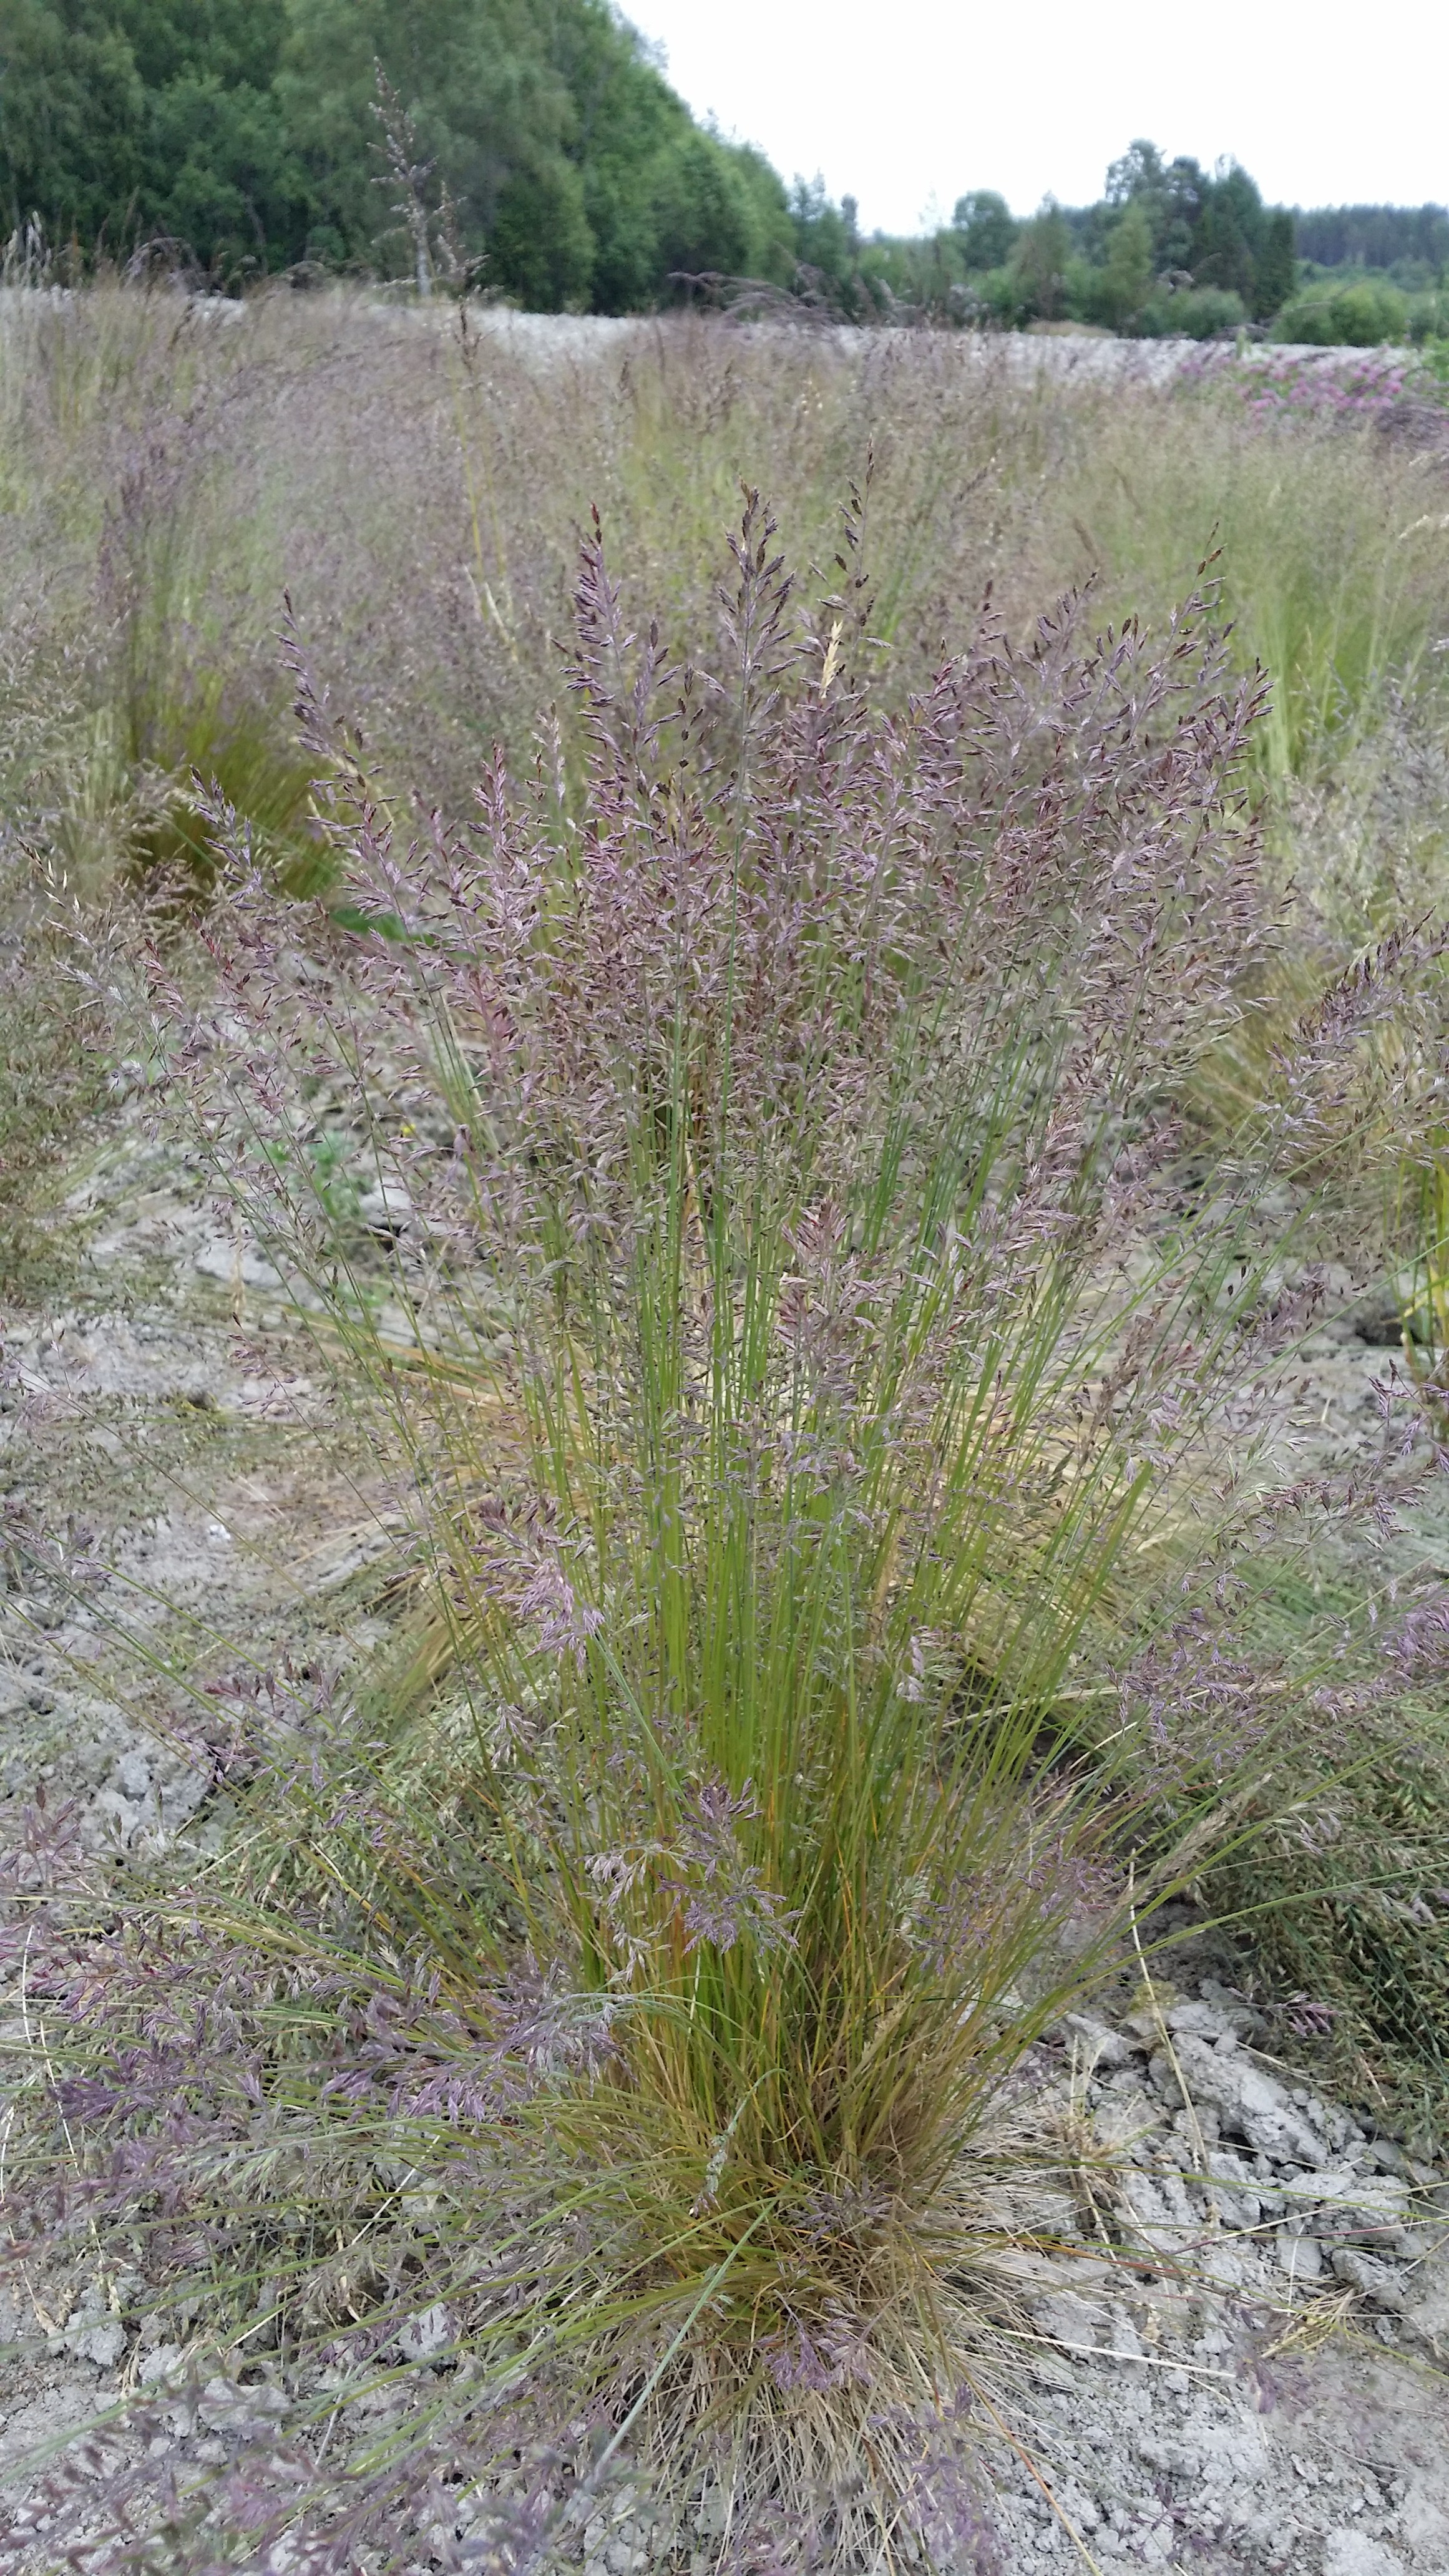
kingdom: Plantae
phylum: Tracheophyta
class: Liliopsida
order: Poales
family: Poaceae
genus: Festuca
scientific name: Festuca ovina
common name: Sheep fescue
